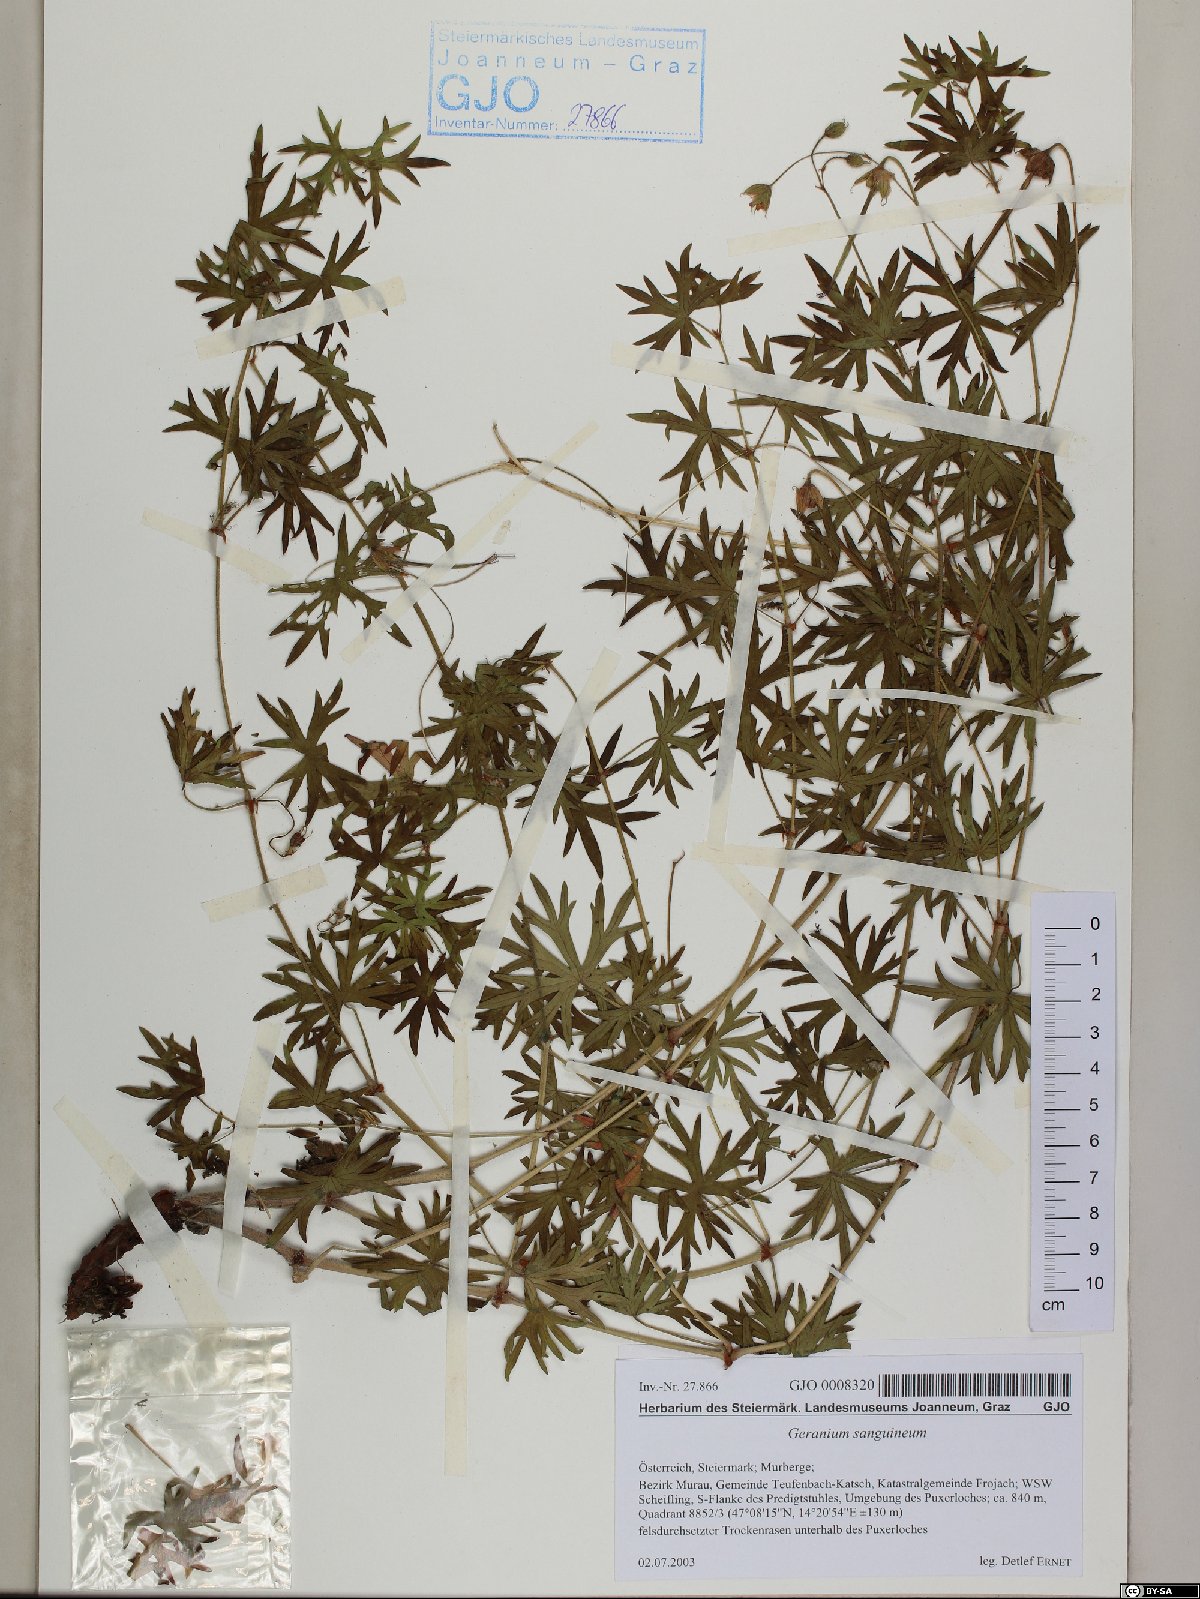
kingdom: Plantae
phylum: Tracheophyta
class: Magnoliopsida
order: Geraniales
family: Geraniaceae
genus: Geranium
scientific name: Geranium sanguineum
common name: Bloody crane's-bill
